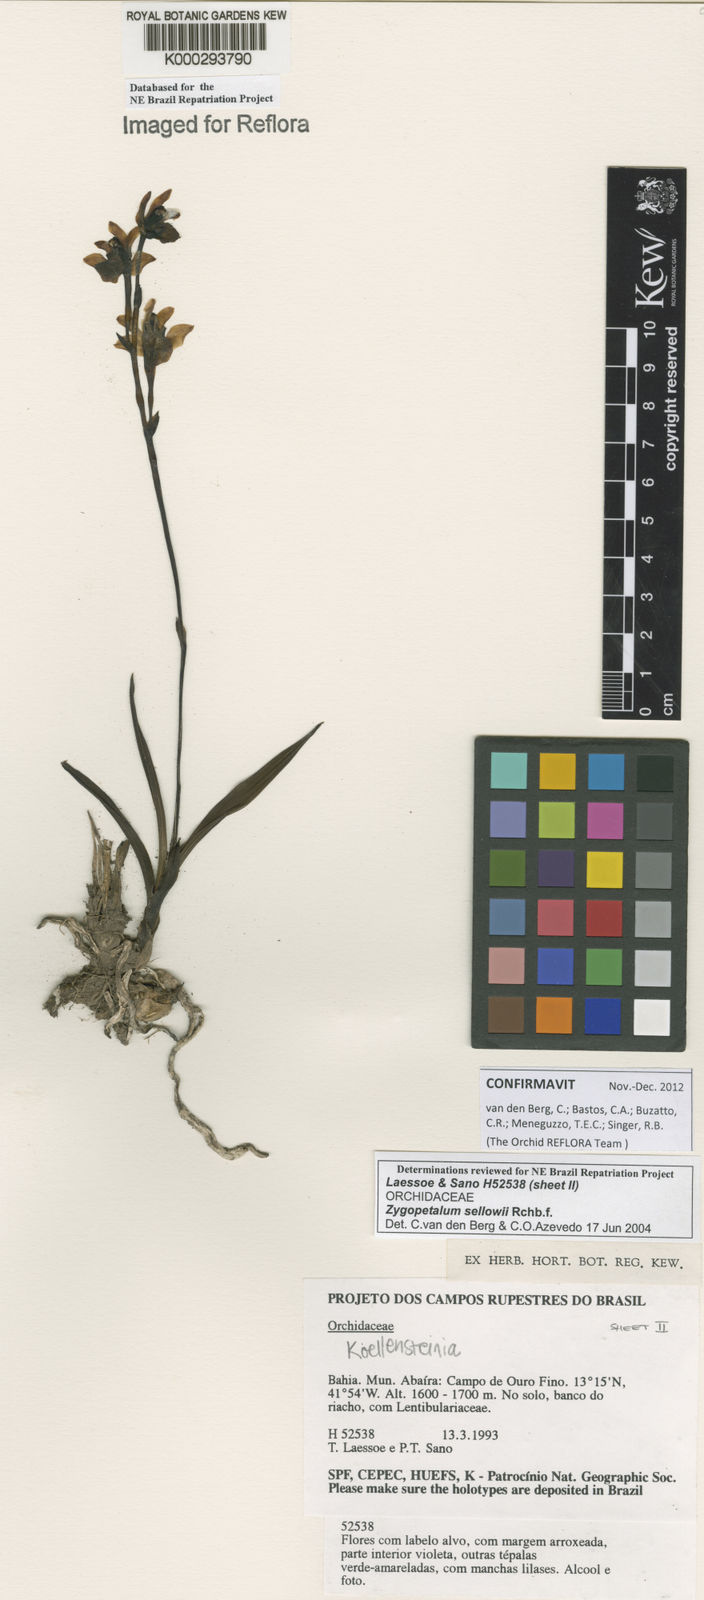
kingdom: Plantae
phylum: Tracheophyta
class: Liliopsida
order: Asparagales
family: Orchidaceae
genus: Zygopetalum
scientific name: Zygopetalum sellowii
